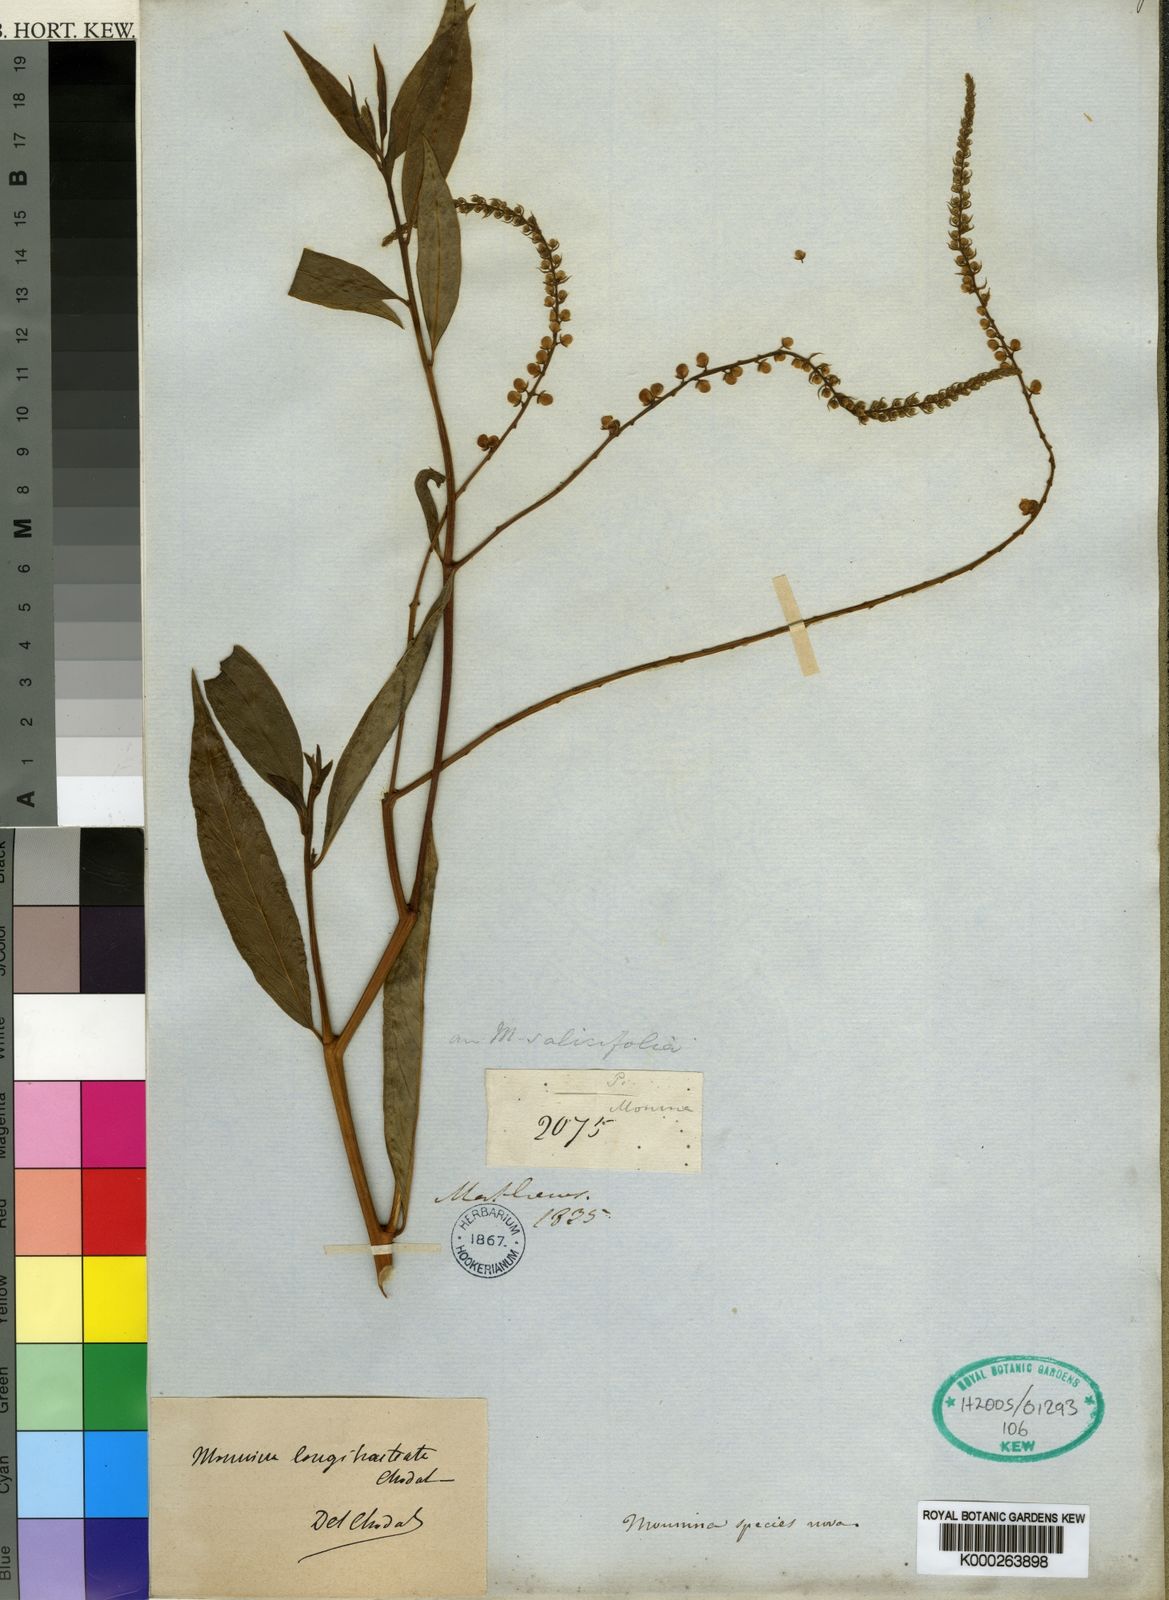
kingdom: Plantae
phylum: Tracheophyta
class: Magnoliopsida
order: Fabales
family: Polygalaceae
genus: Monnina
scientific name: Monnina longibracteata
